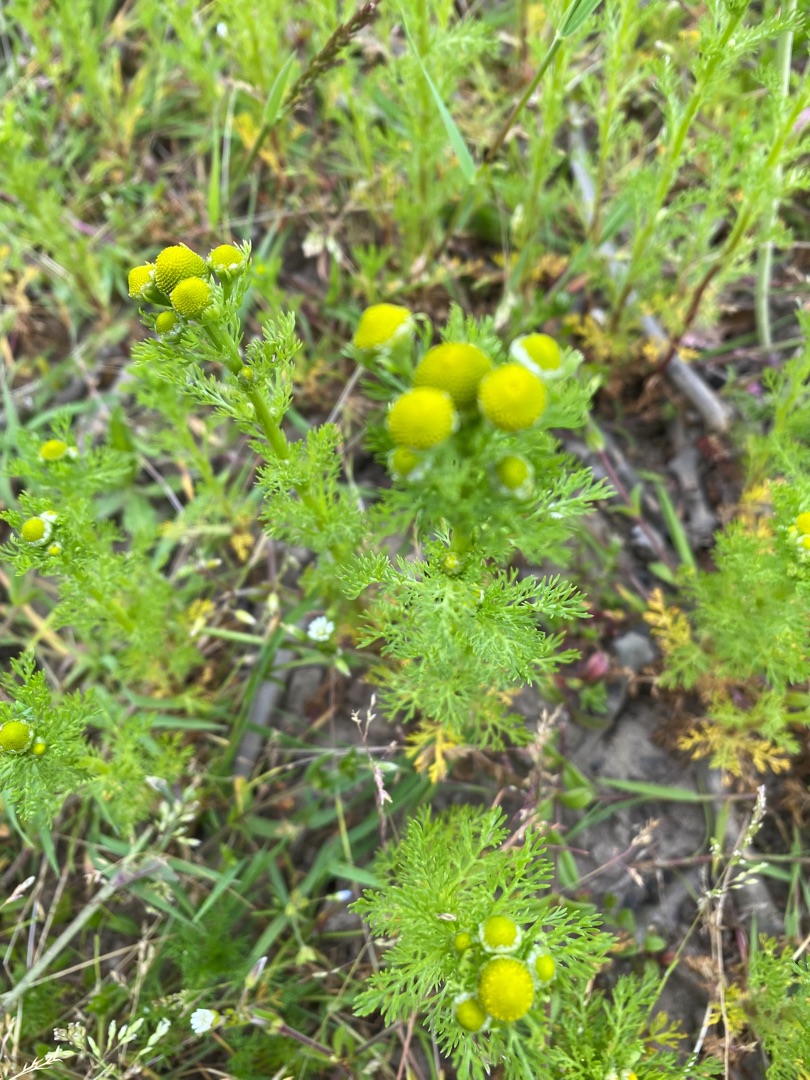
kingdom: Plantae
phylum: Tracheophyta
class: Magnoliopsida
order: Asterales
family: Asteraceae
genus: Matricaria
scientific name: Matricaria discoidea
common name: Skive-kamille
